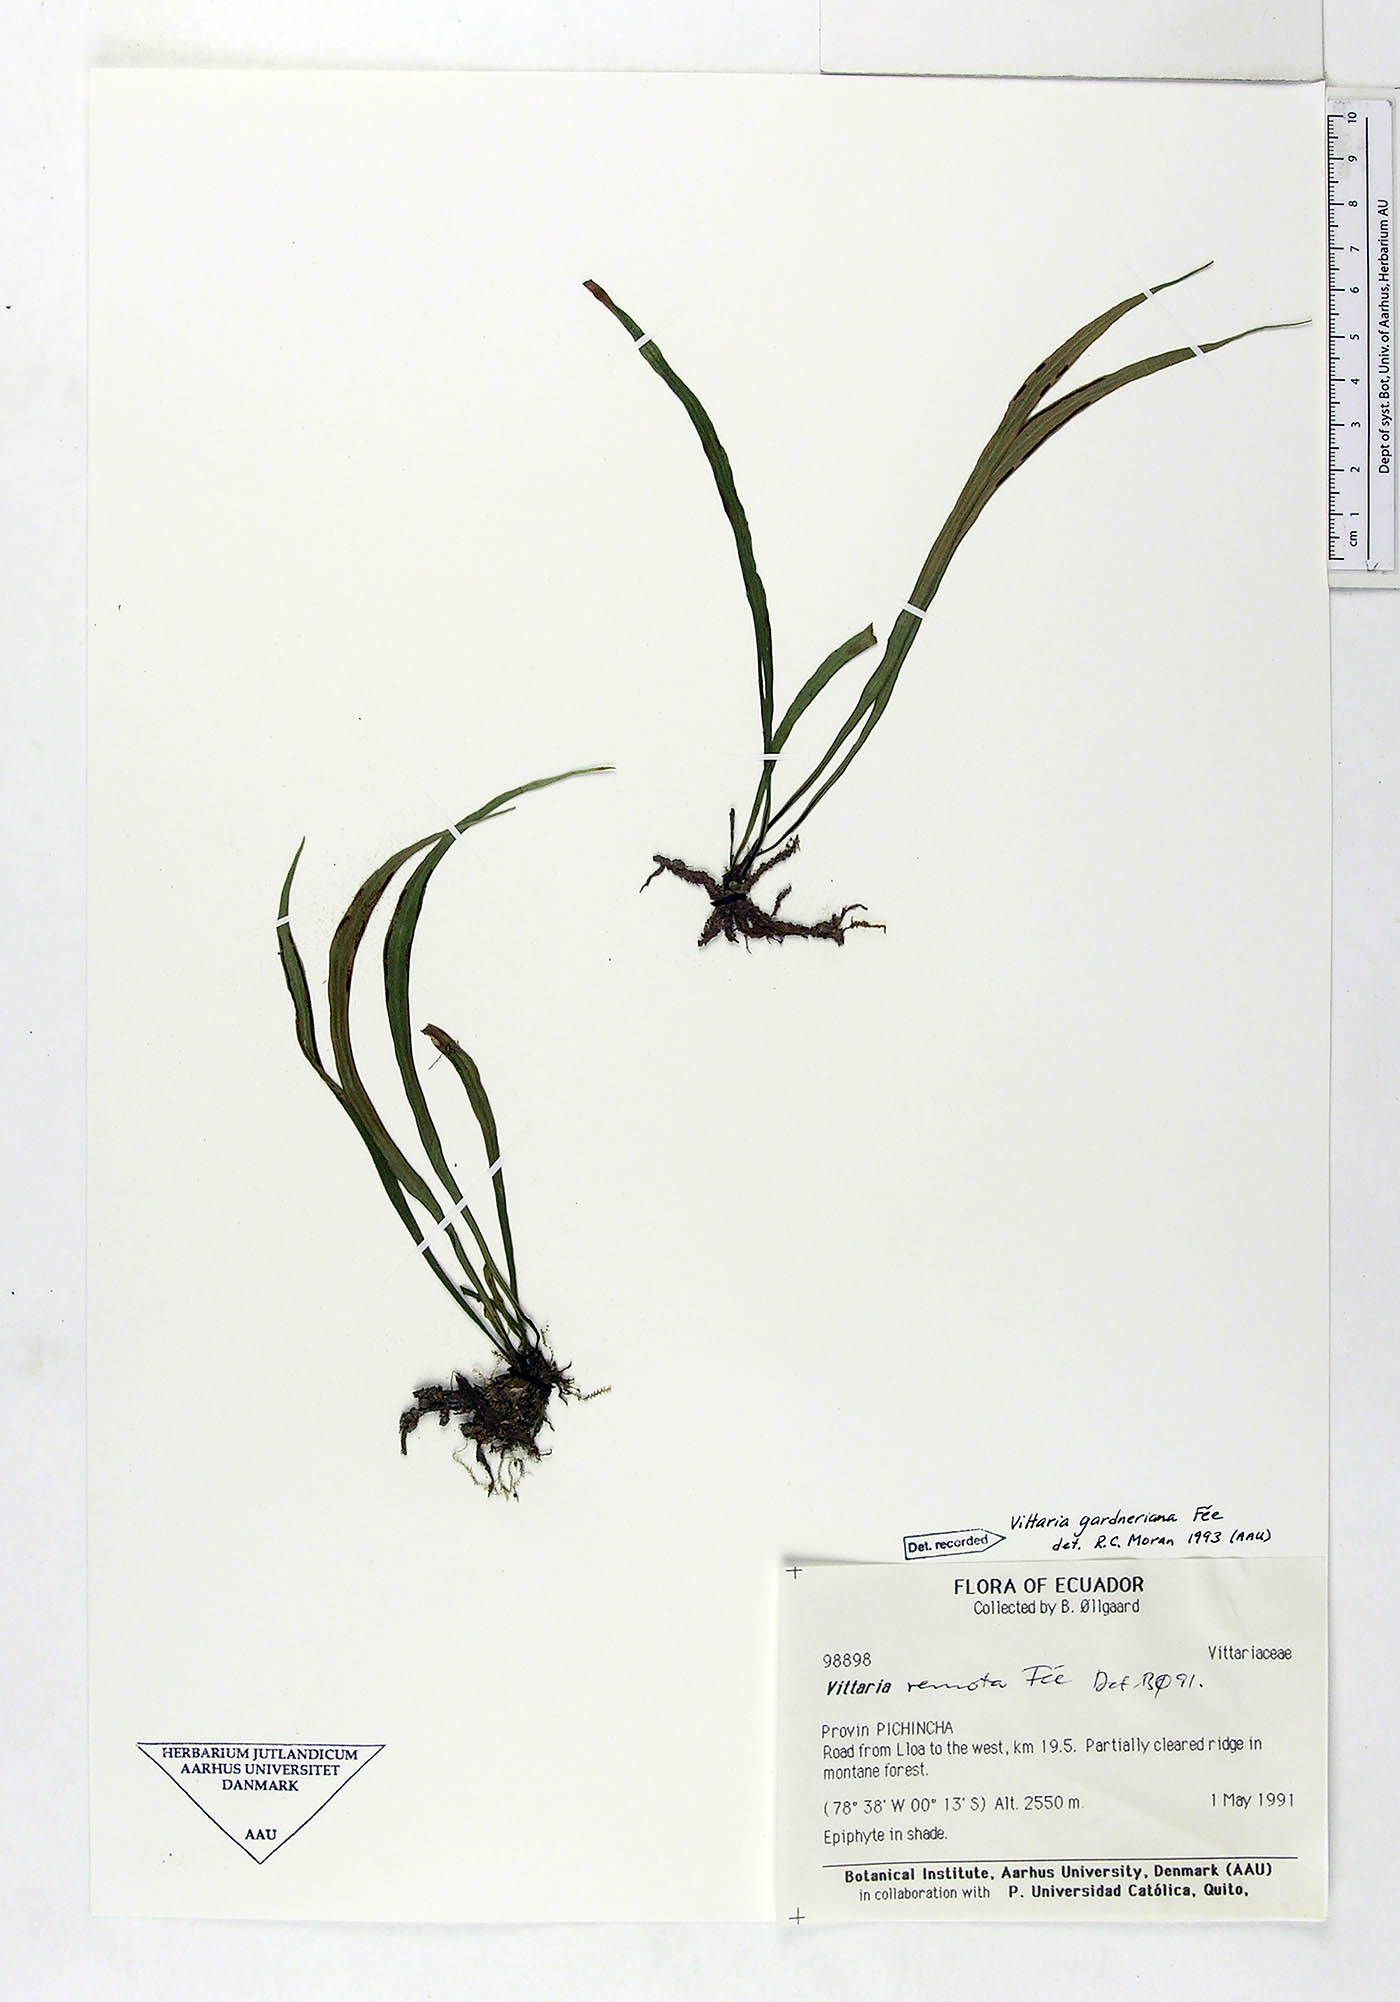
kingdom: Plantae
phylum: Tracheophyta
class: Polypodiopsida
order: Polypodiales
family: Pteridaceae
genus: Radiovittaria
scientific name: Radiovittaria gardneriana
